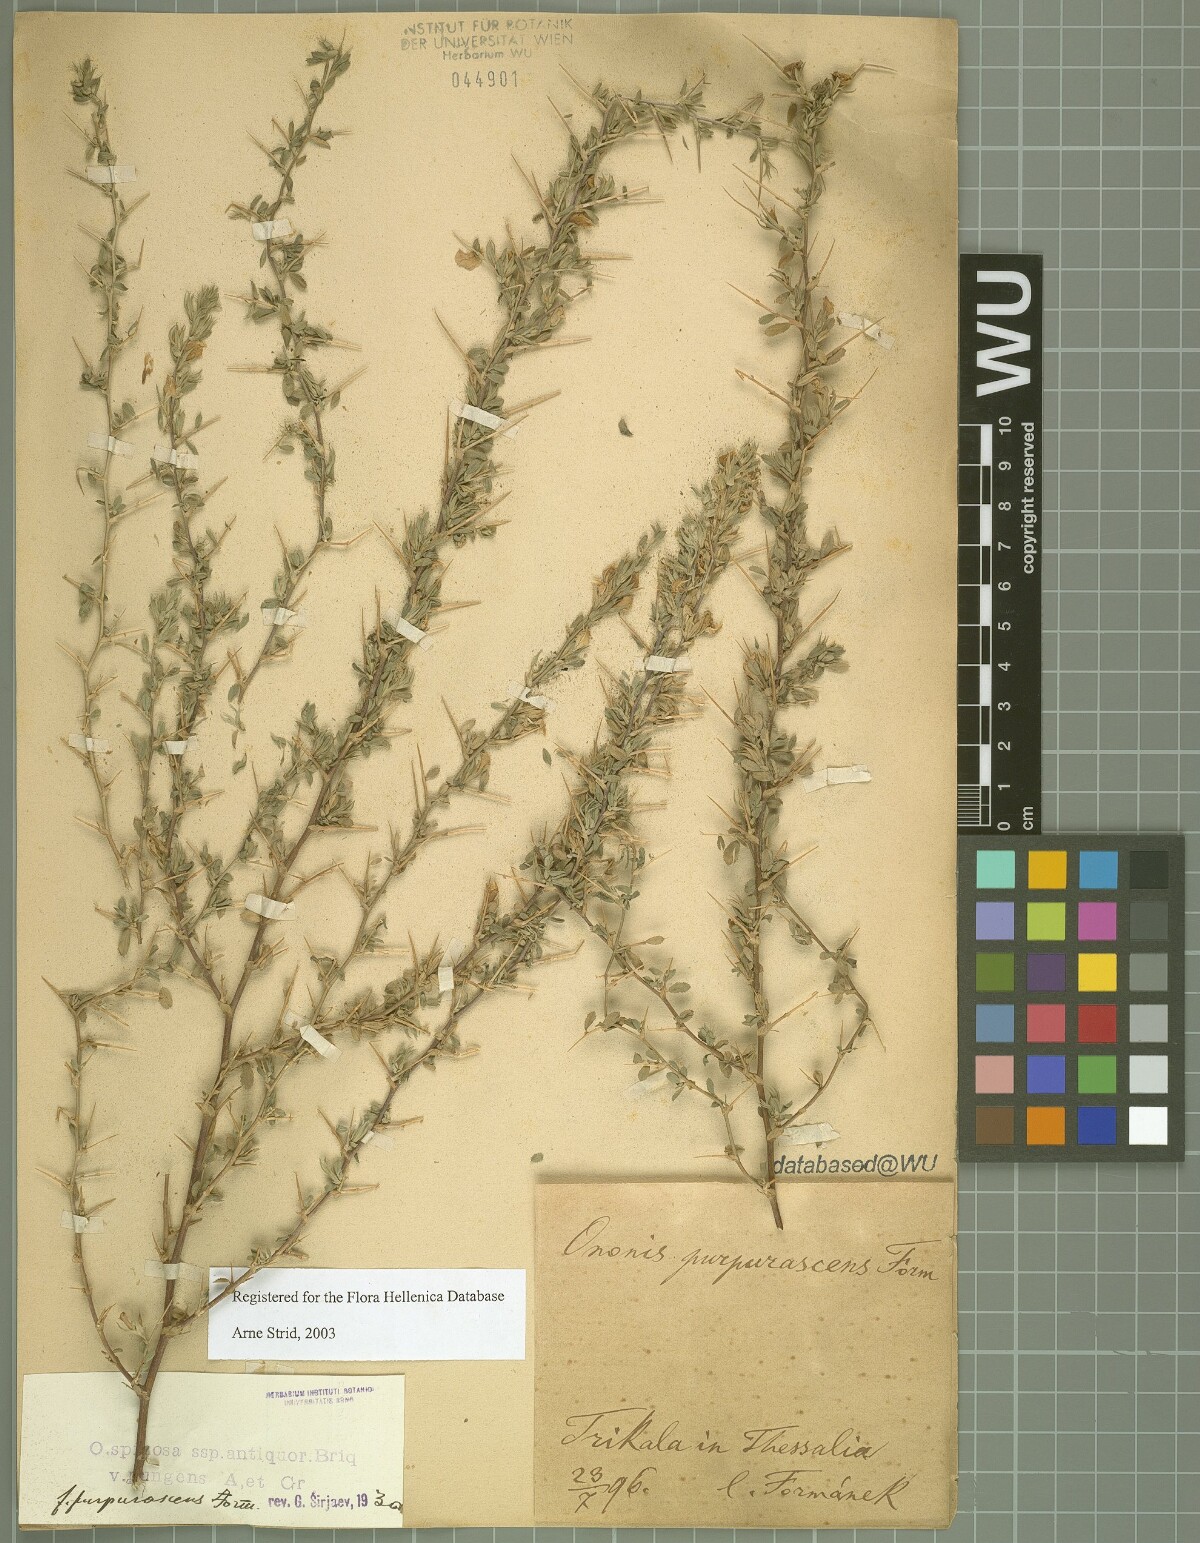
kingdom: Plantae
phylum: Tracheophyta
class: Magnoliopsida
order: Fabales
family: Fabaceae
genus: Ononis
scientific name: Ononis spinosa
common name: Spiny restharrow
